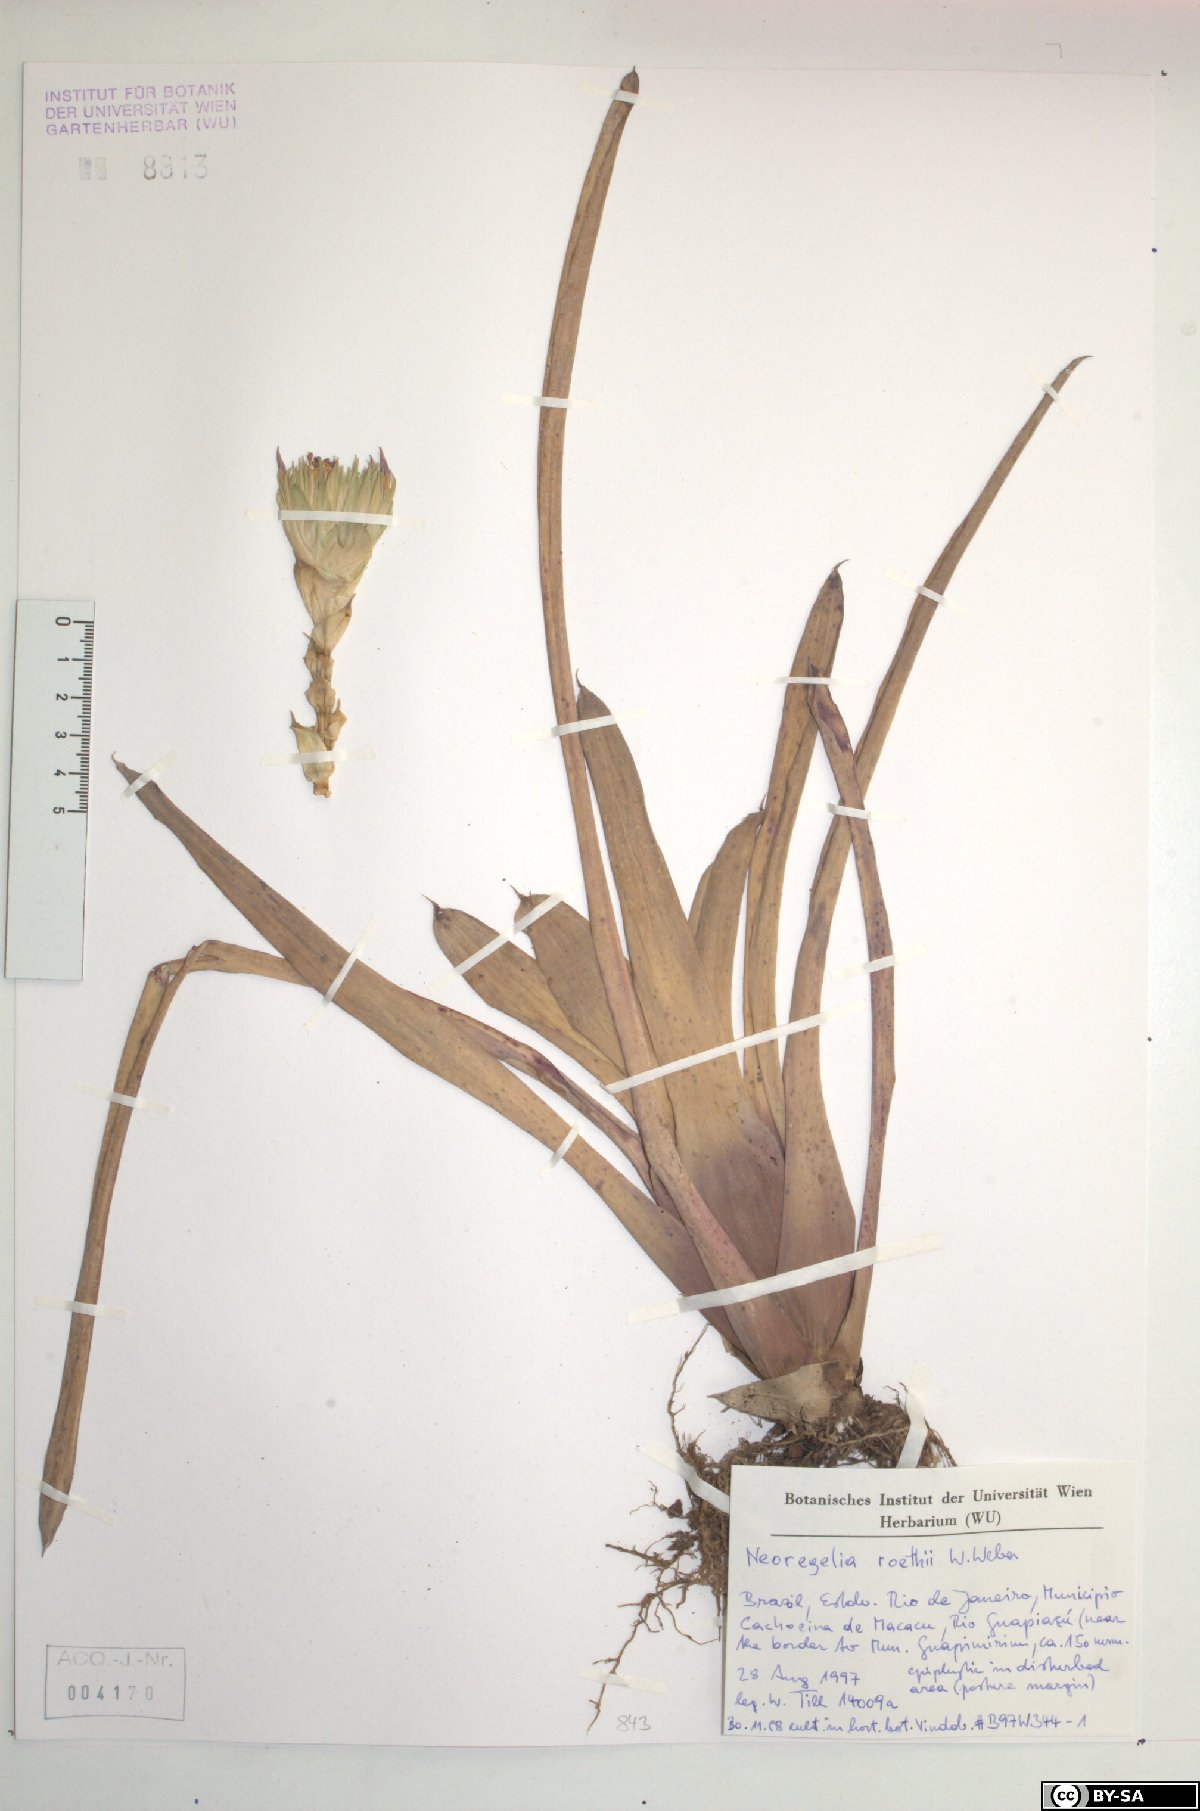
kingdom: Plantae
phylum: Tracheophyta
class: Liliopsida
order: Poales
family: Bromeliaceae
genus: Neoregelia
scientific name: Neoregelia roethii
